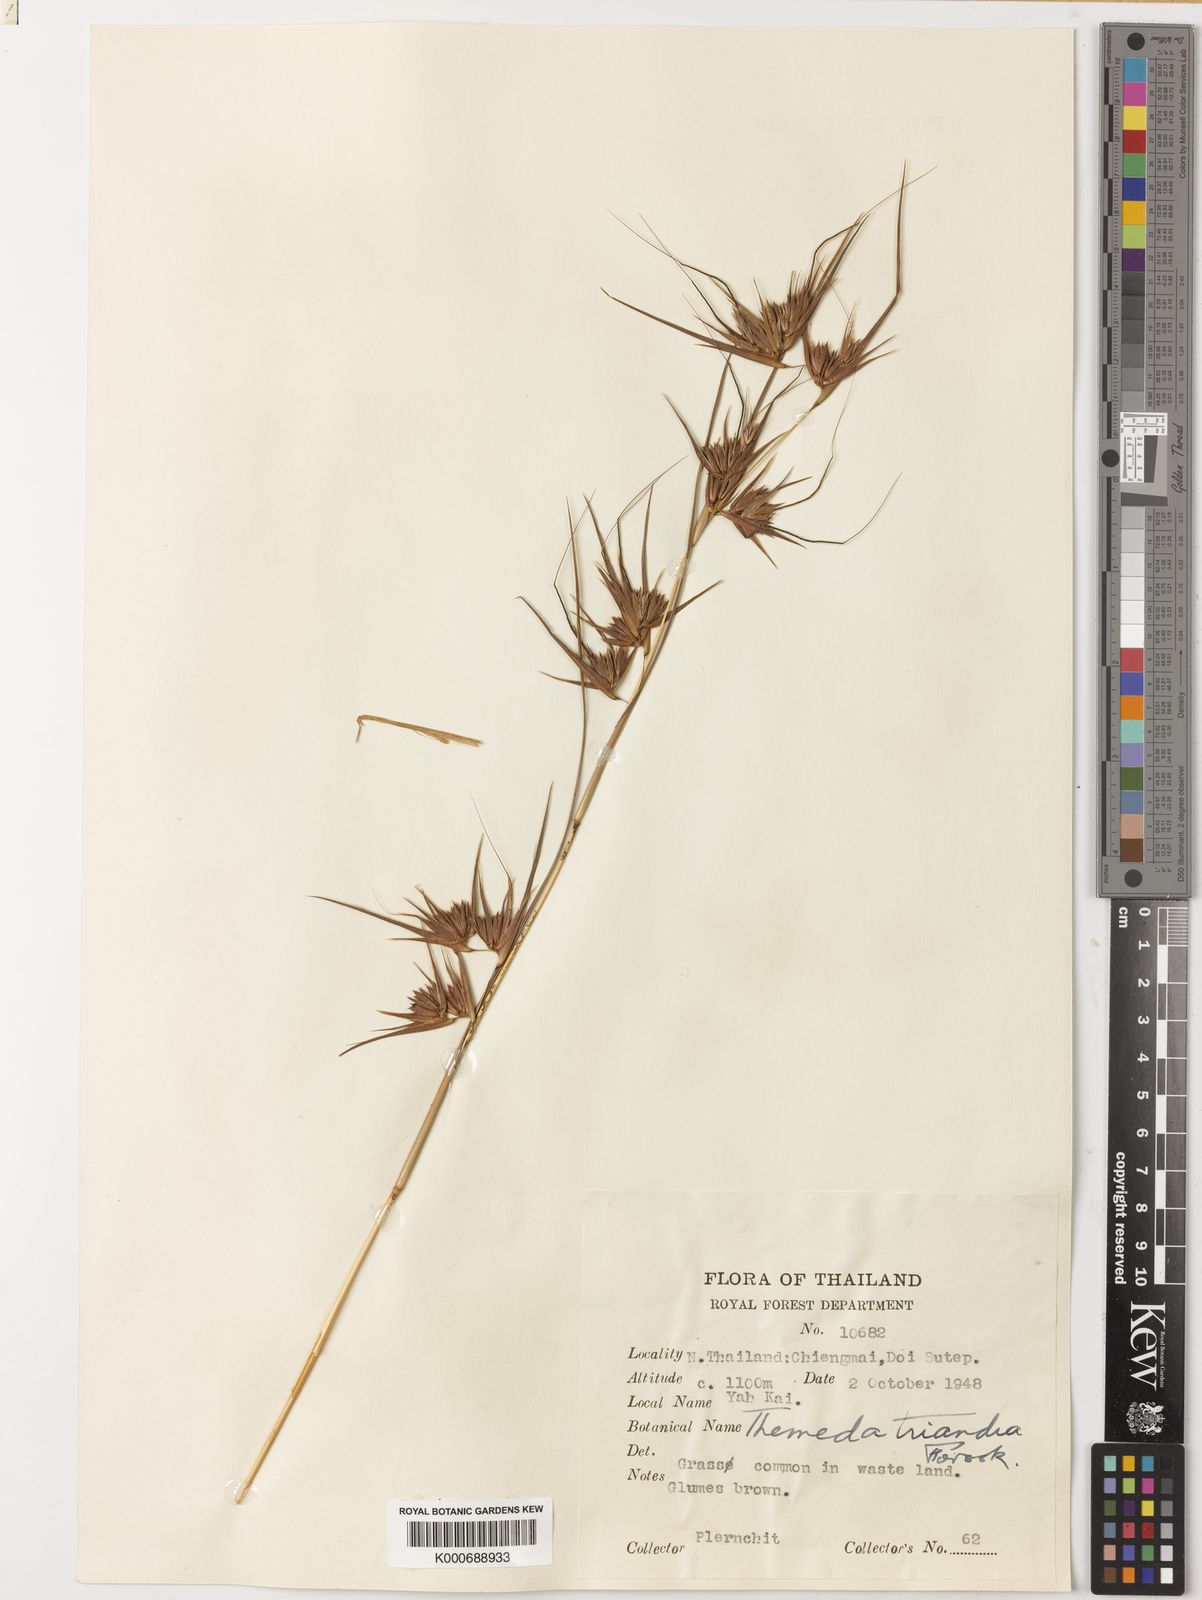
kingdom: Plantae
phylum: Tracheophyta
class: Liliopsida
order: Poales
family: Poaceae
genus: Themeda
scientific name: Themeda triandra
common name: Kangaroo grass
